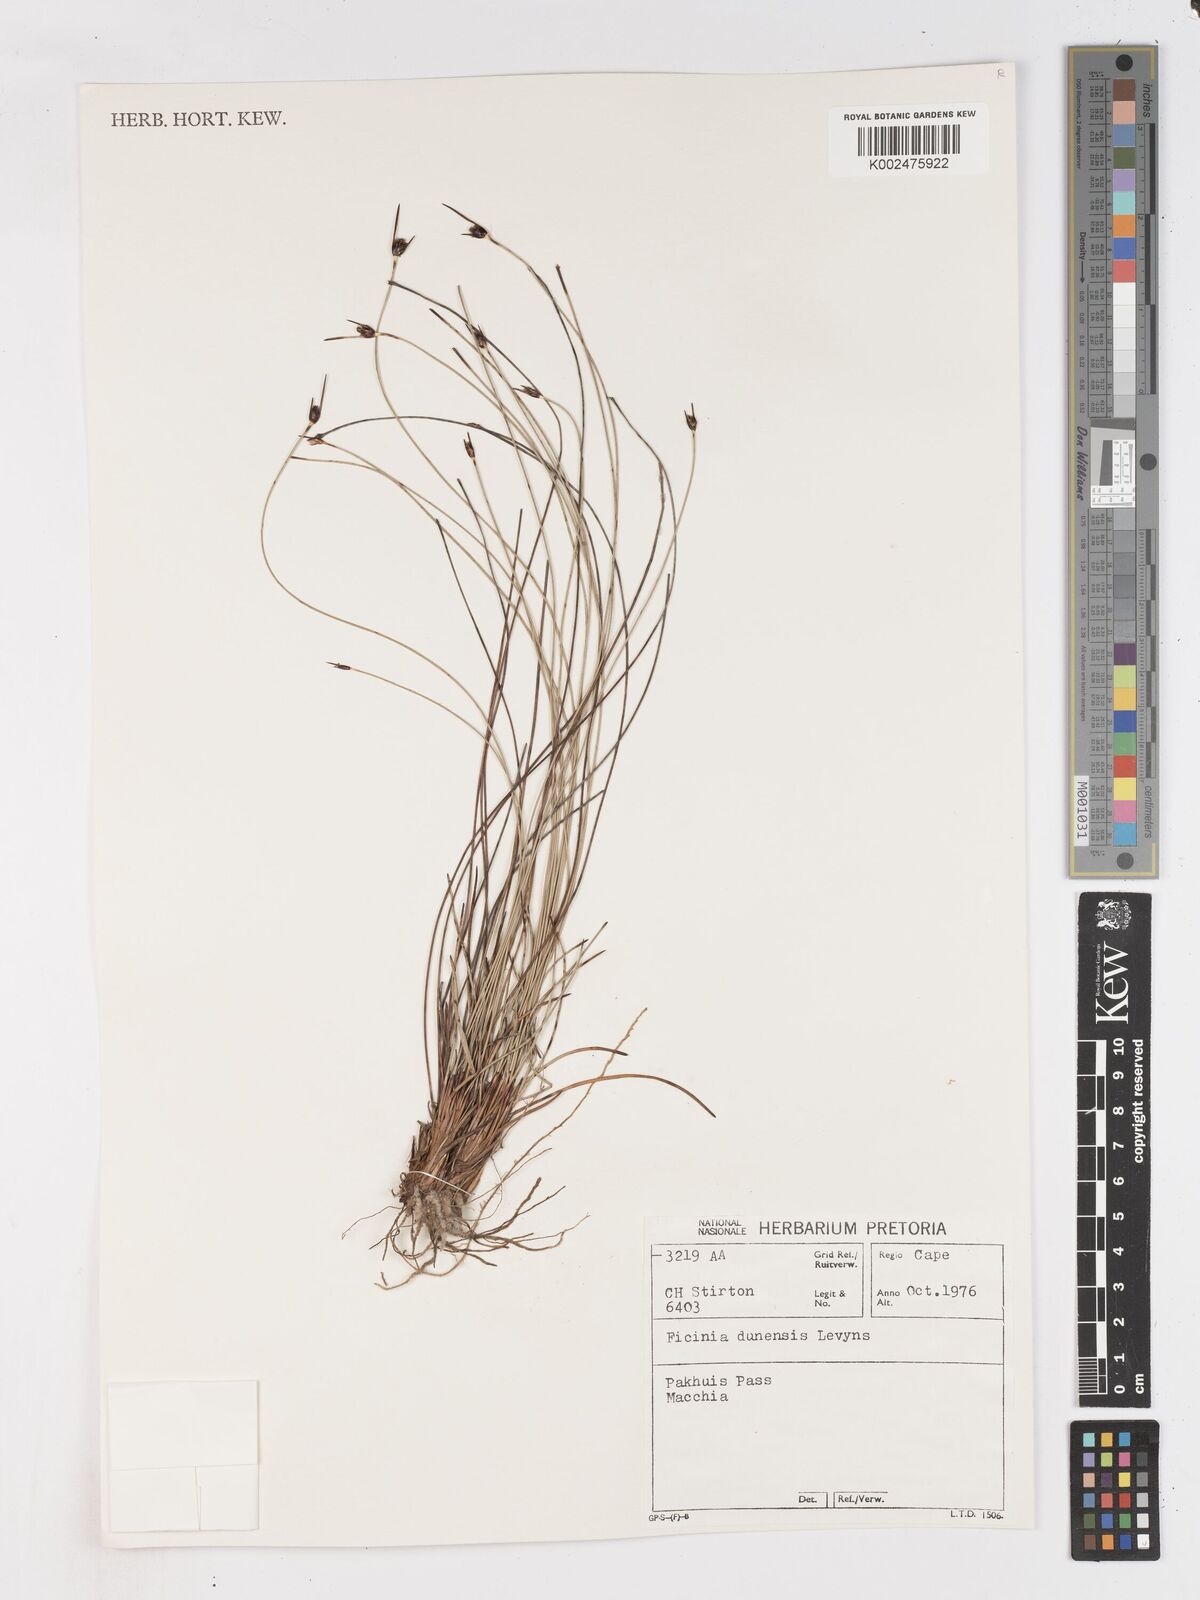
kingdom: Plantae
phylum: Tracheophyta
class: Liliopsida
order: Poales
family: Cyperaceae
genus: Ficinia
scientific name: Ficinia dunensis
